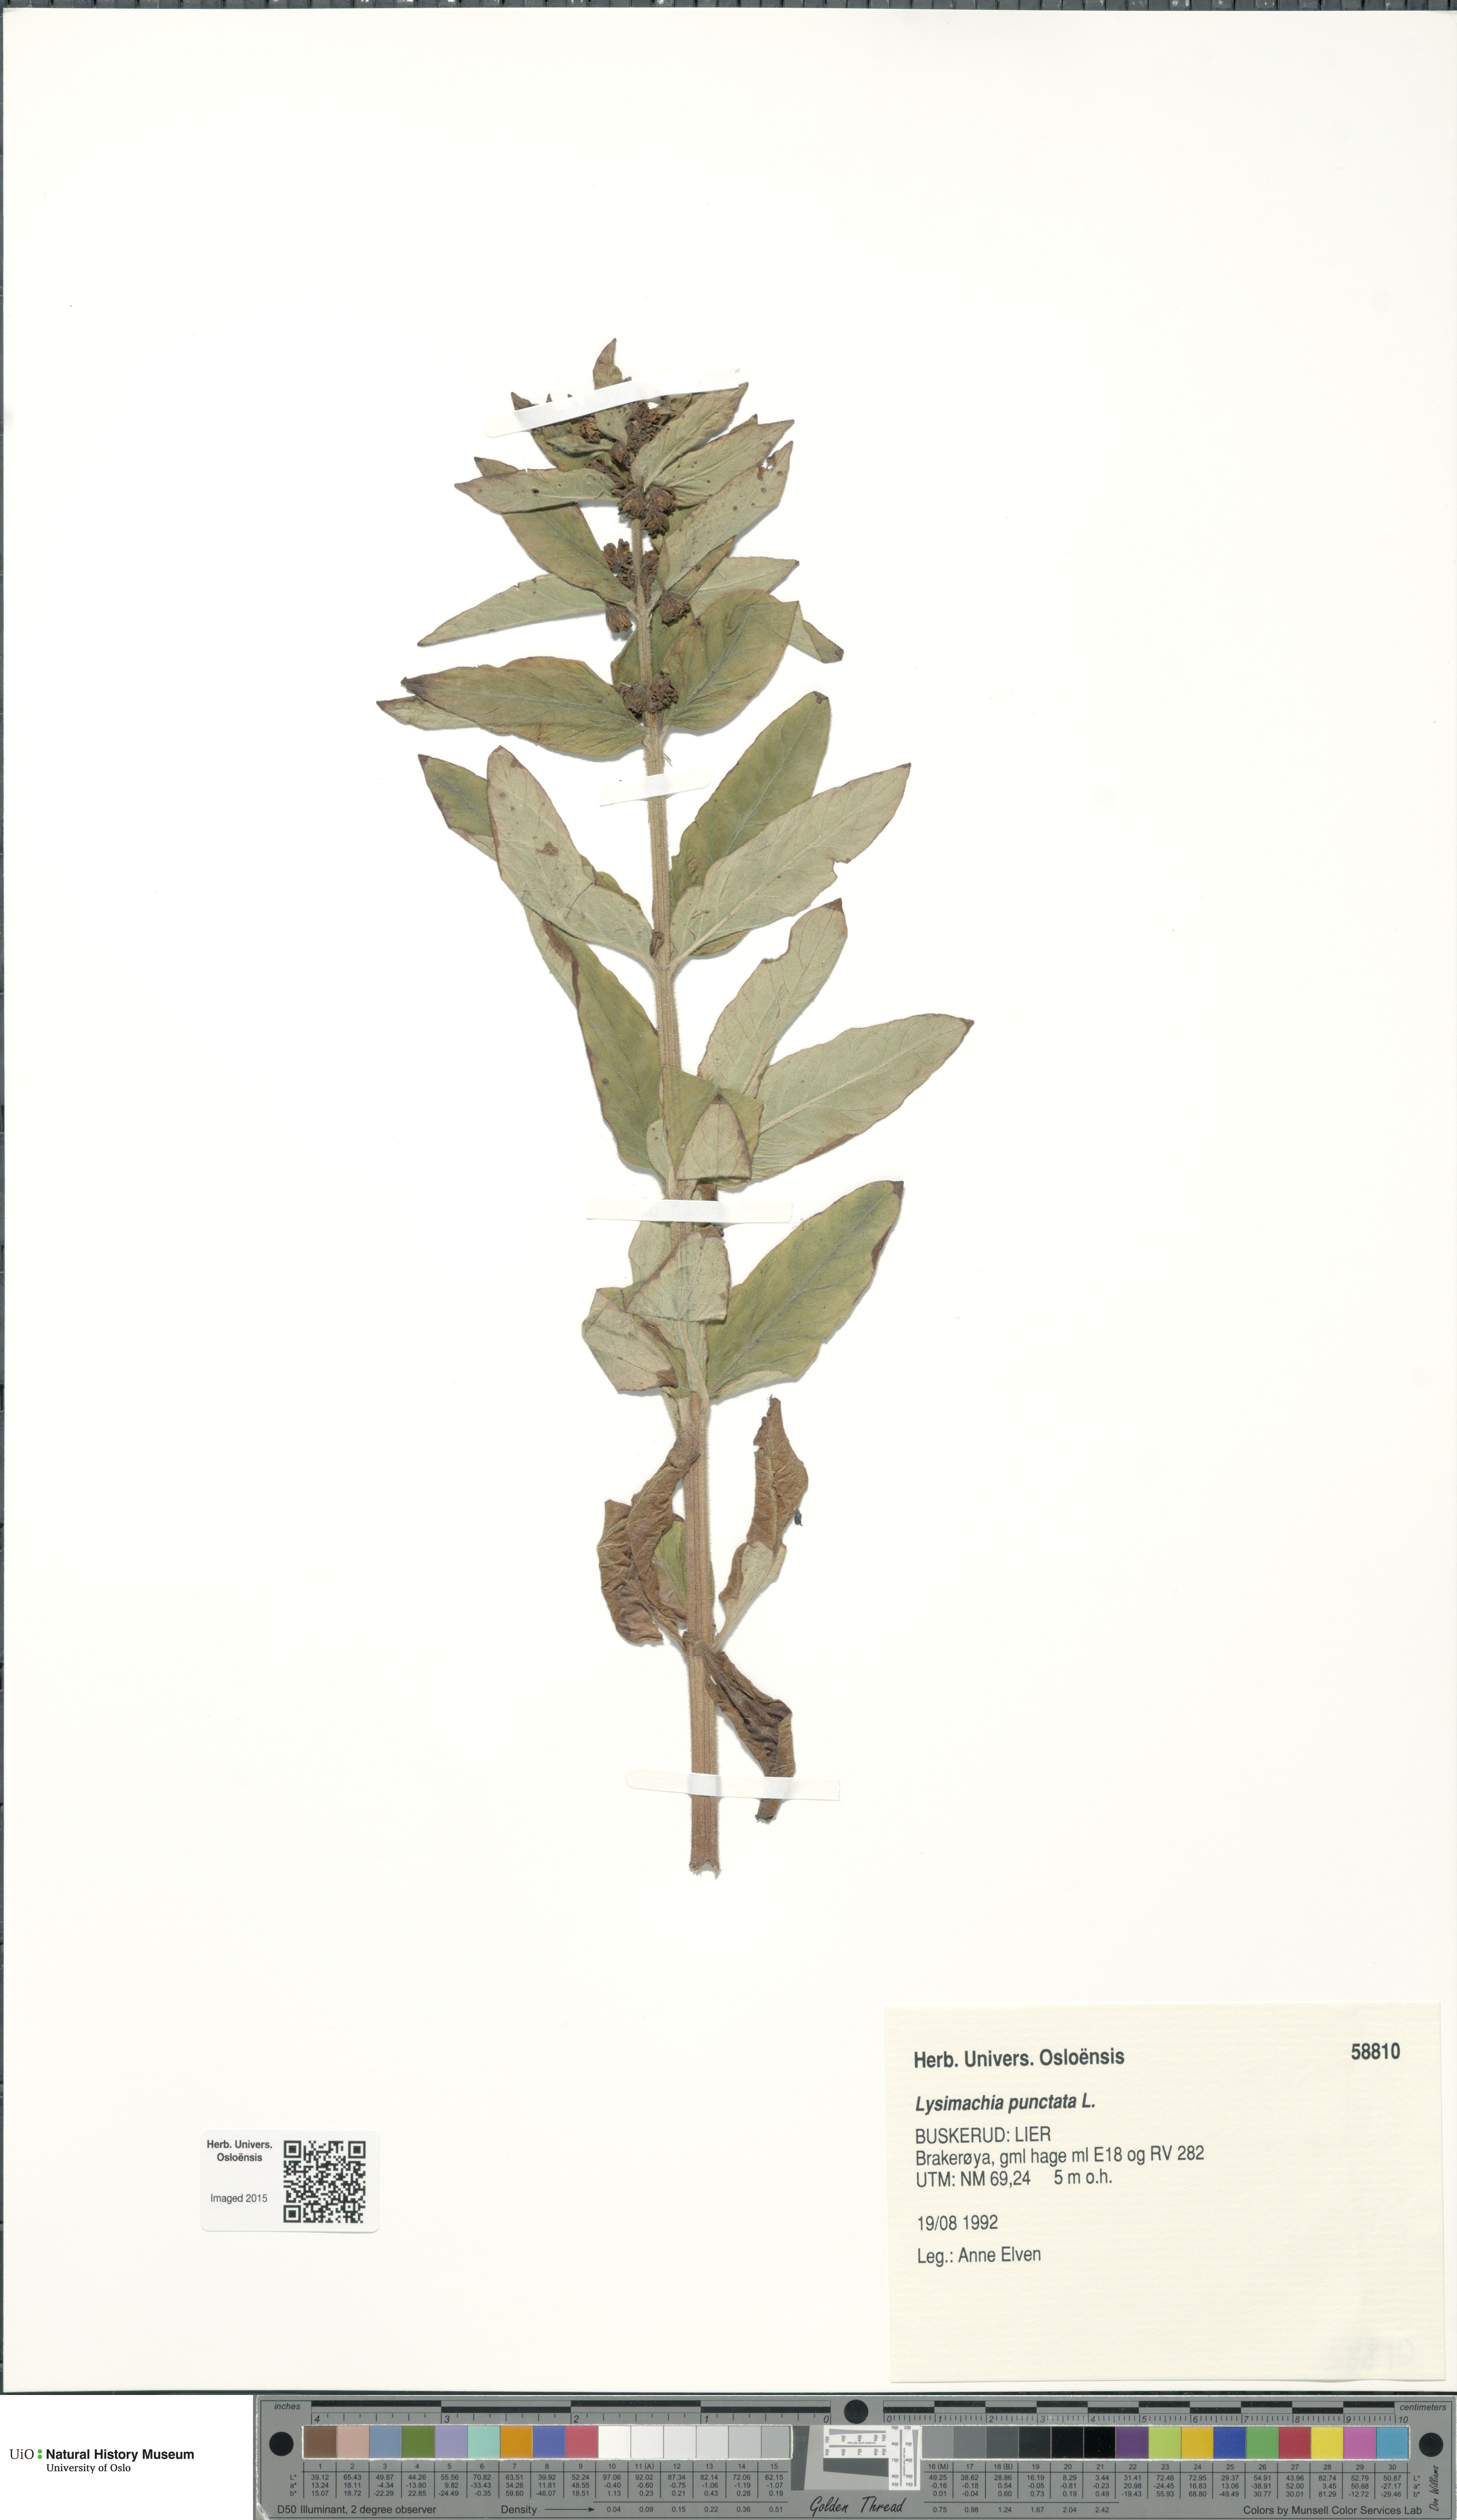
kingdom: Plantae
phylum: Tracheophyta
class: Magnoliopsida
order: Ericales
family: Primulaceae
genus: Lysimachia
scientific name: Lysimachia punctata
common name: Dotted loosestrife
